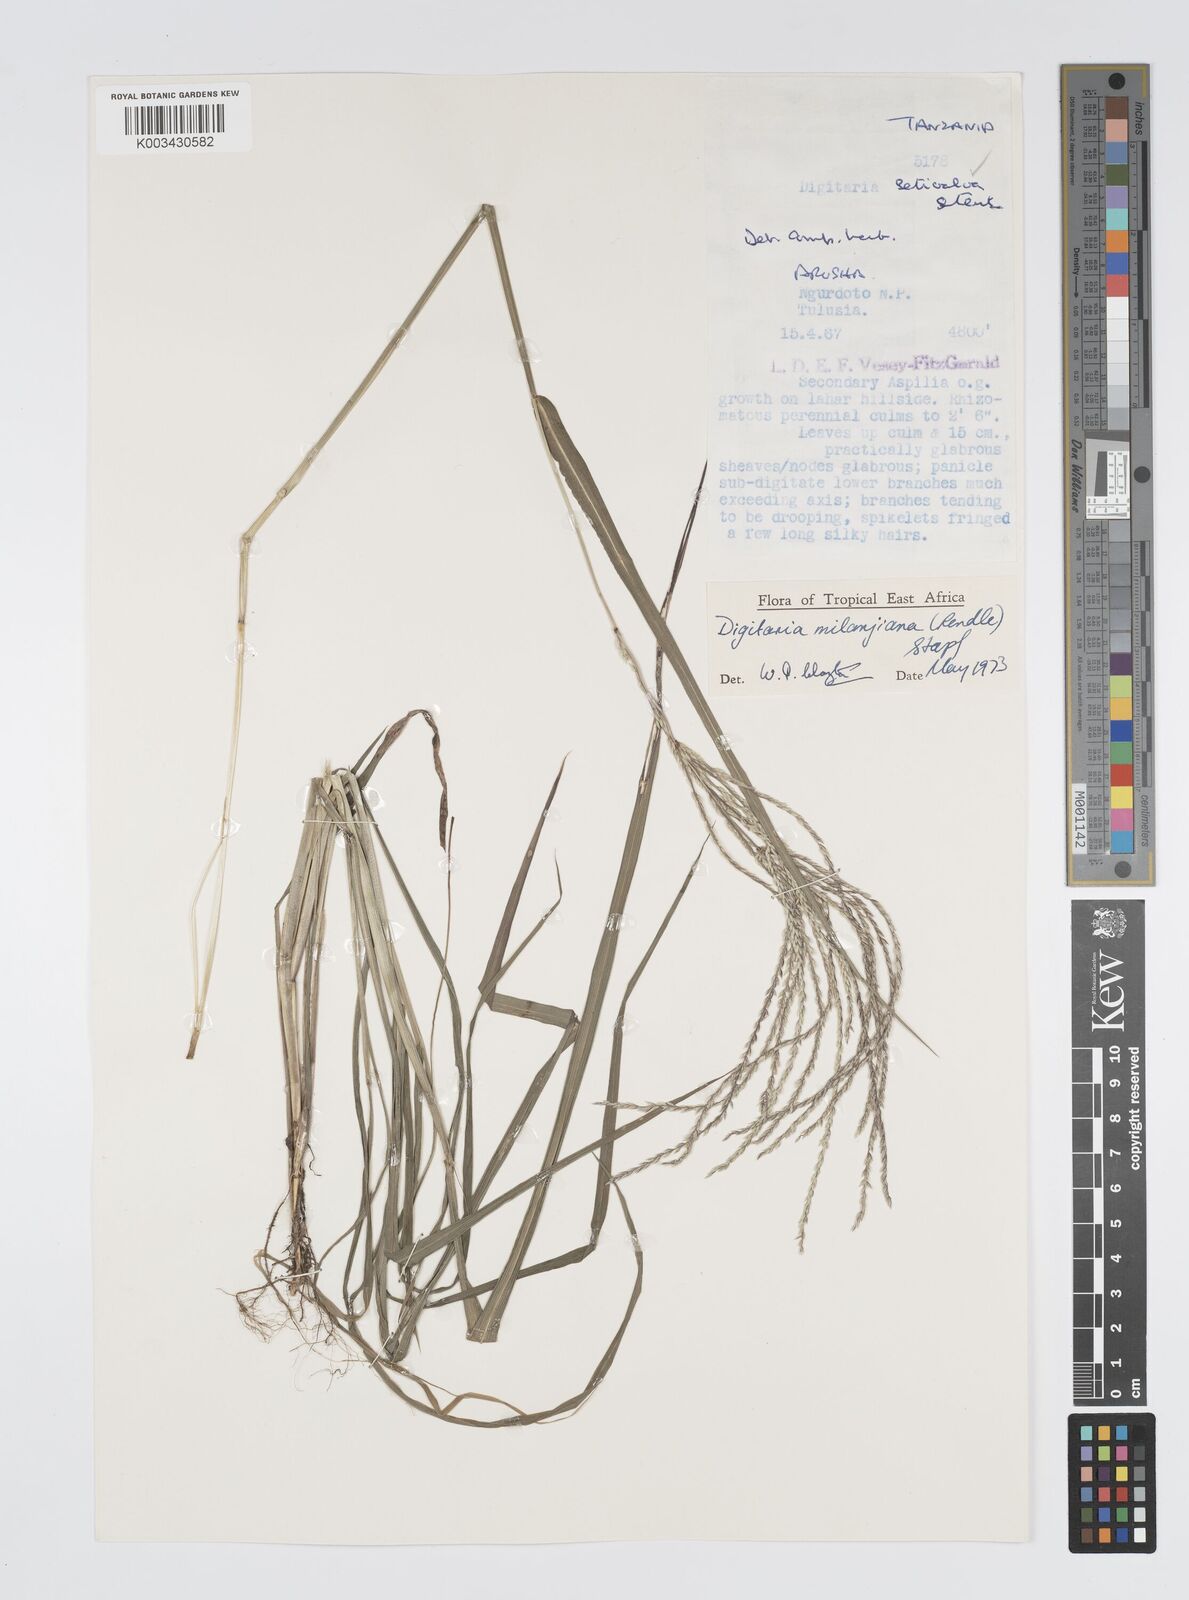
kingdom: Plantae
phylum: Tracheophyta
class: Liliopsida
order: Poales
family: Poaceae
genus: Digitaria
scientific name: Digitaria milanjiana
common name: Madagascar crabgrass
